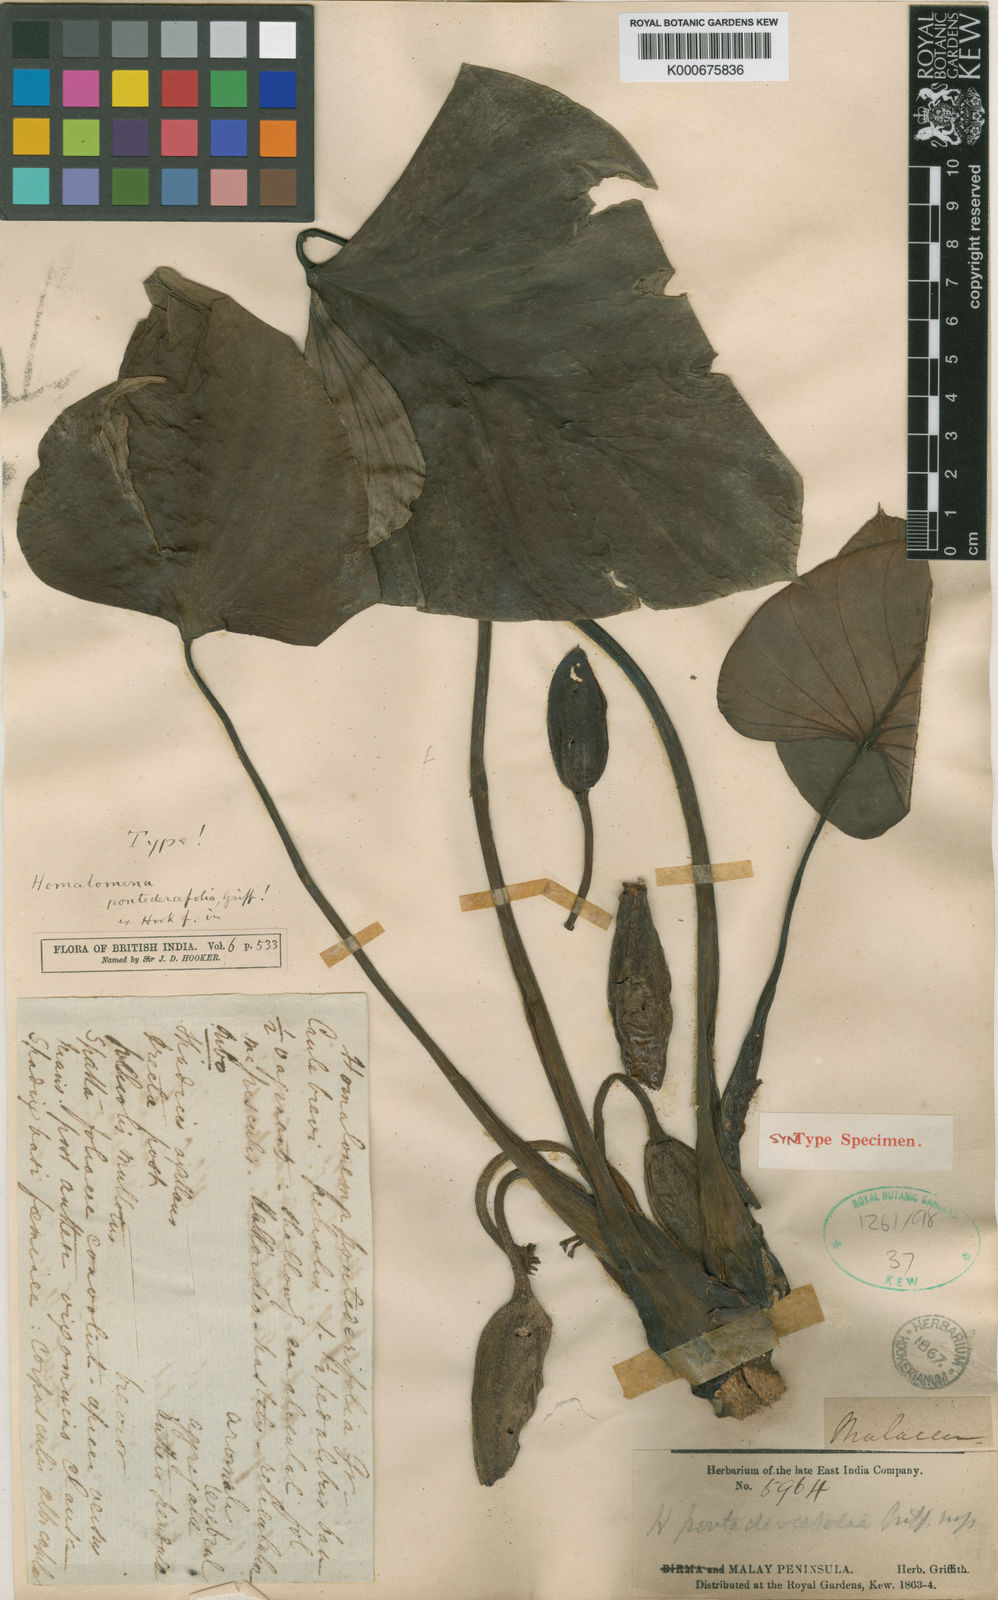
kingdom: Plantae
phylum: Tracheophyta
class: Liliopsida
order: Alismatales
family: Araceae
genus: Homalomena
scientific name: Homalomena pontederifolia
